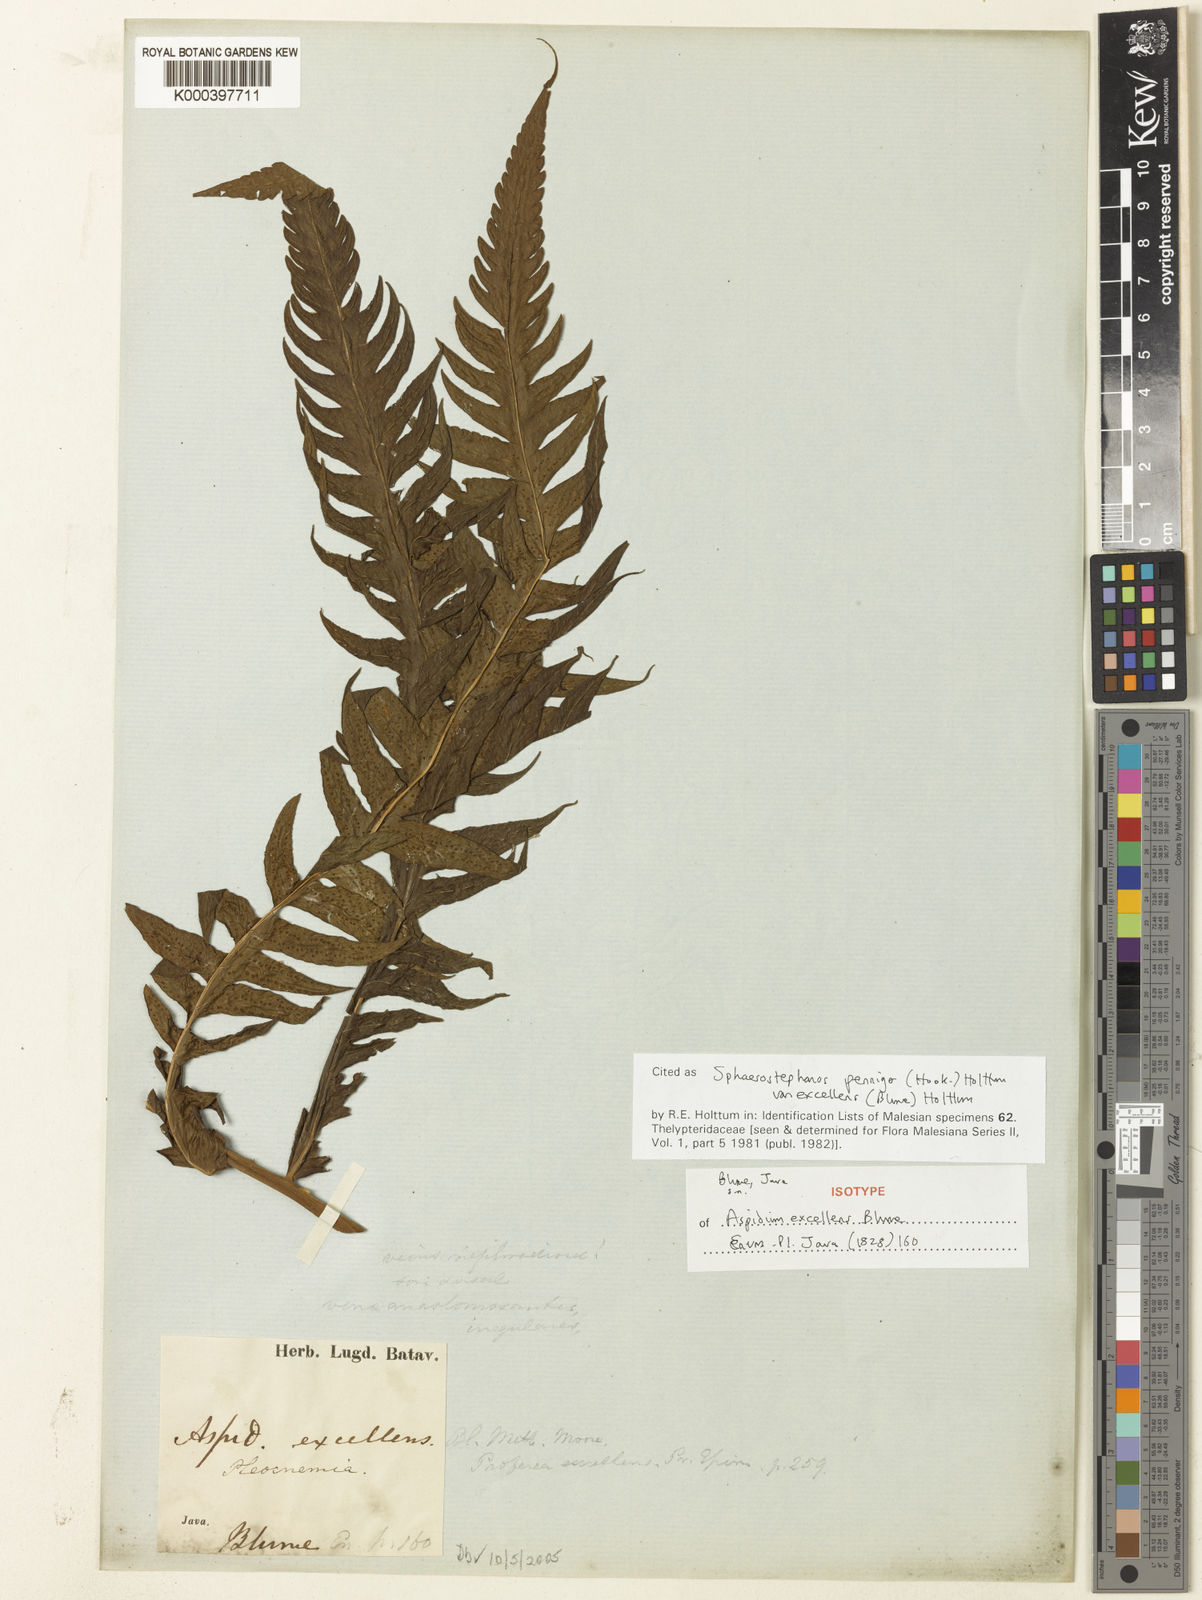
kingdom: Plantae
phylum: Tracheophyta
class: Polypodiopsida
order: Polypodiales
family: Thelypteridaceae
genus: Sphaerostephanos
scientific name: Sphaerostephanos penniger
